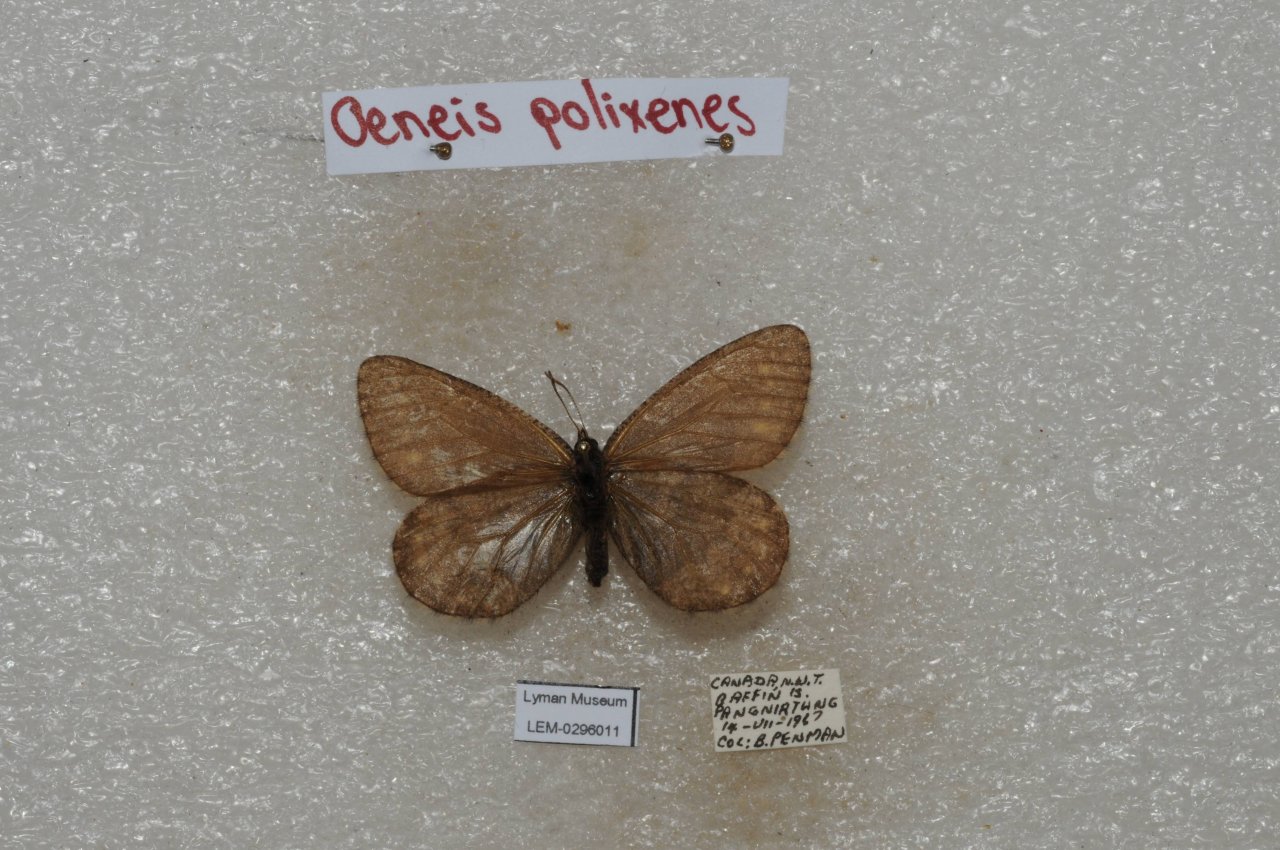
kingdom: Animalia
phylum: Arthropoda
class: Insecta
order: Lepidoptera
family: Nymphalidae
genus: Oeneis
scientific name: Oeneis bore
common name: Polixenes Arctic
